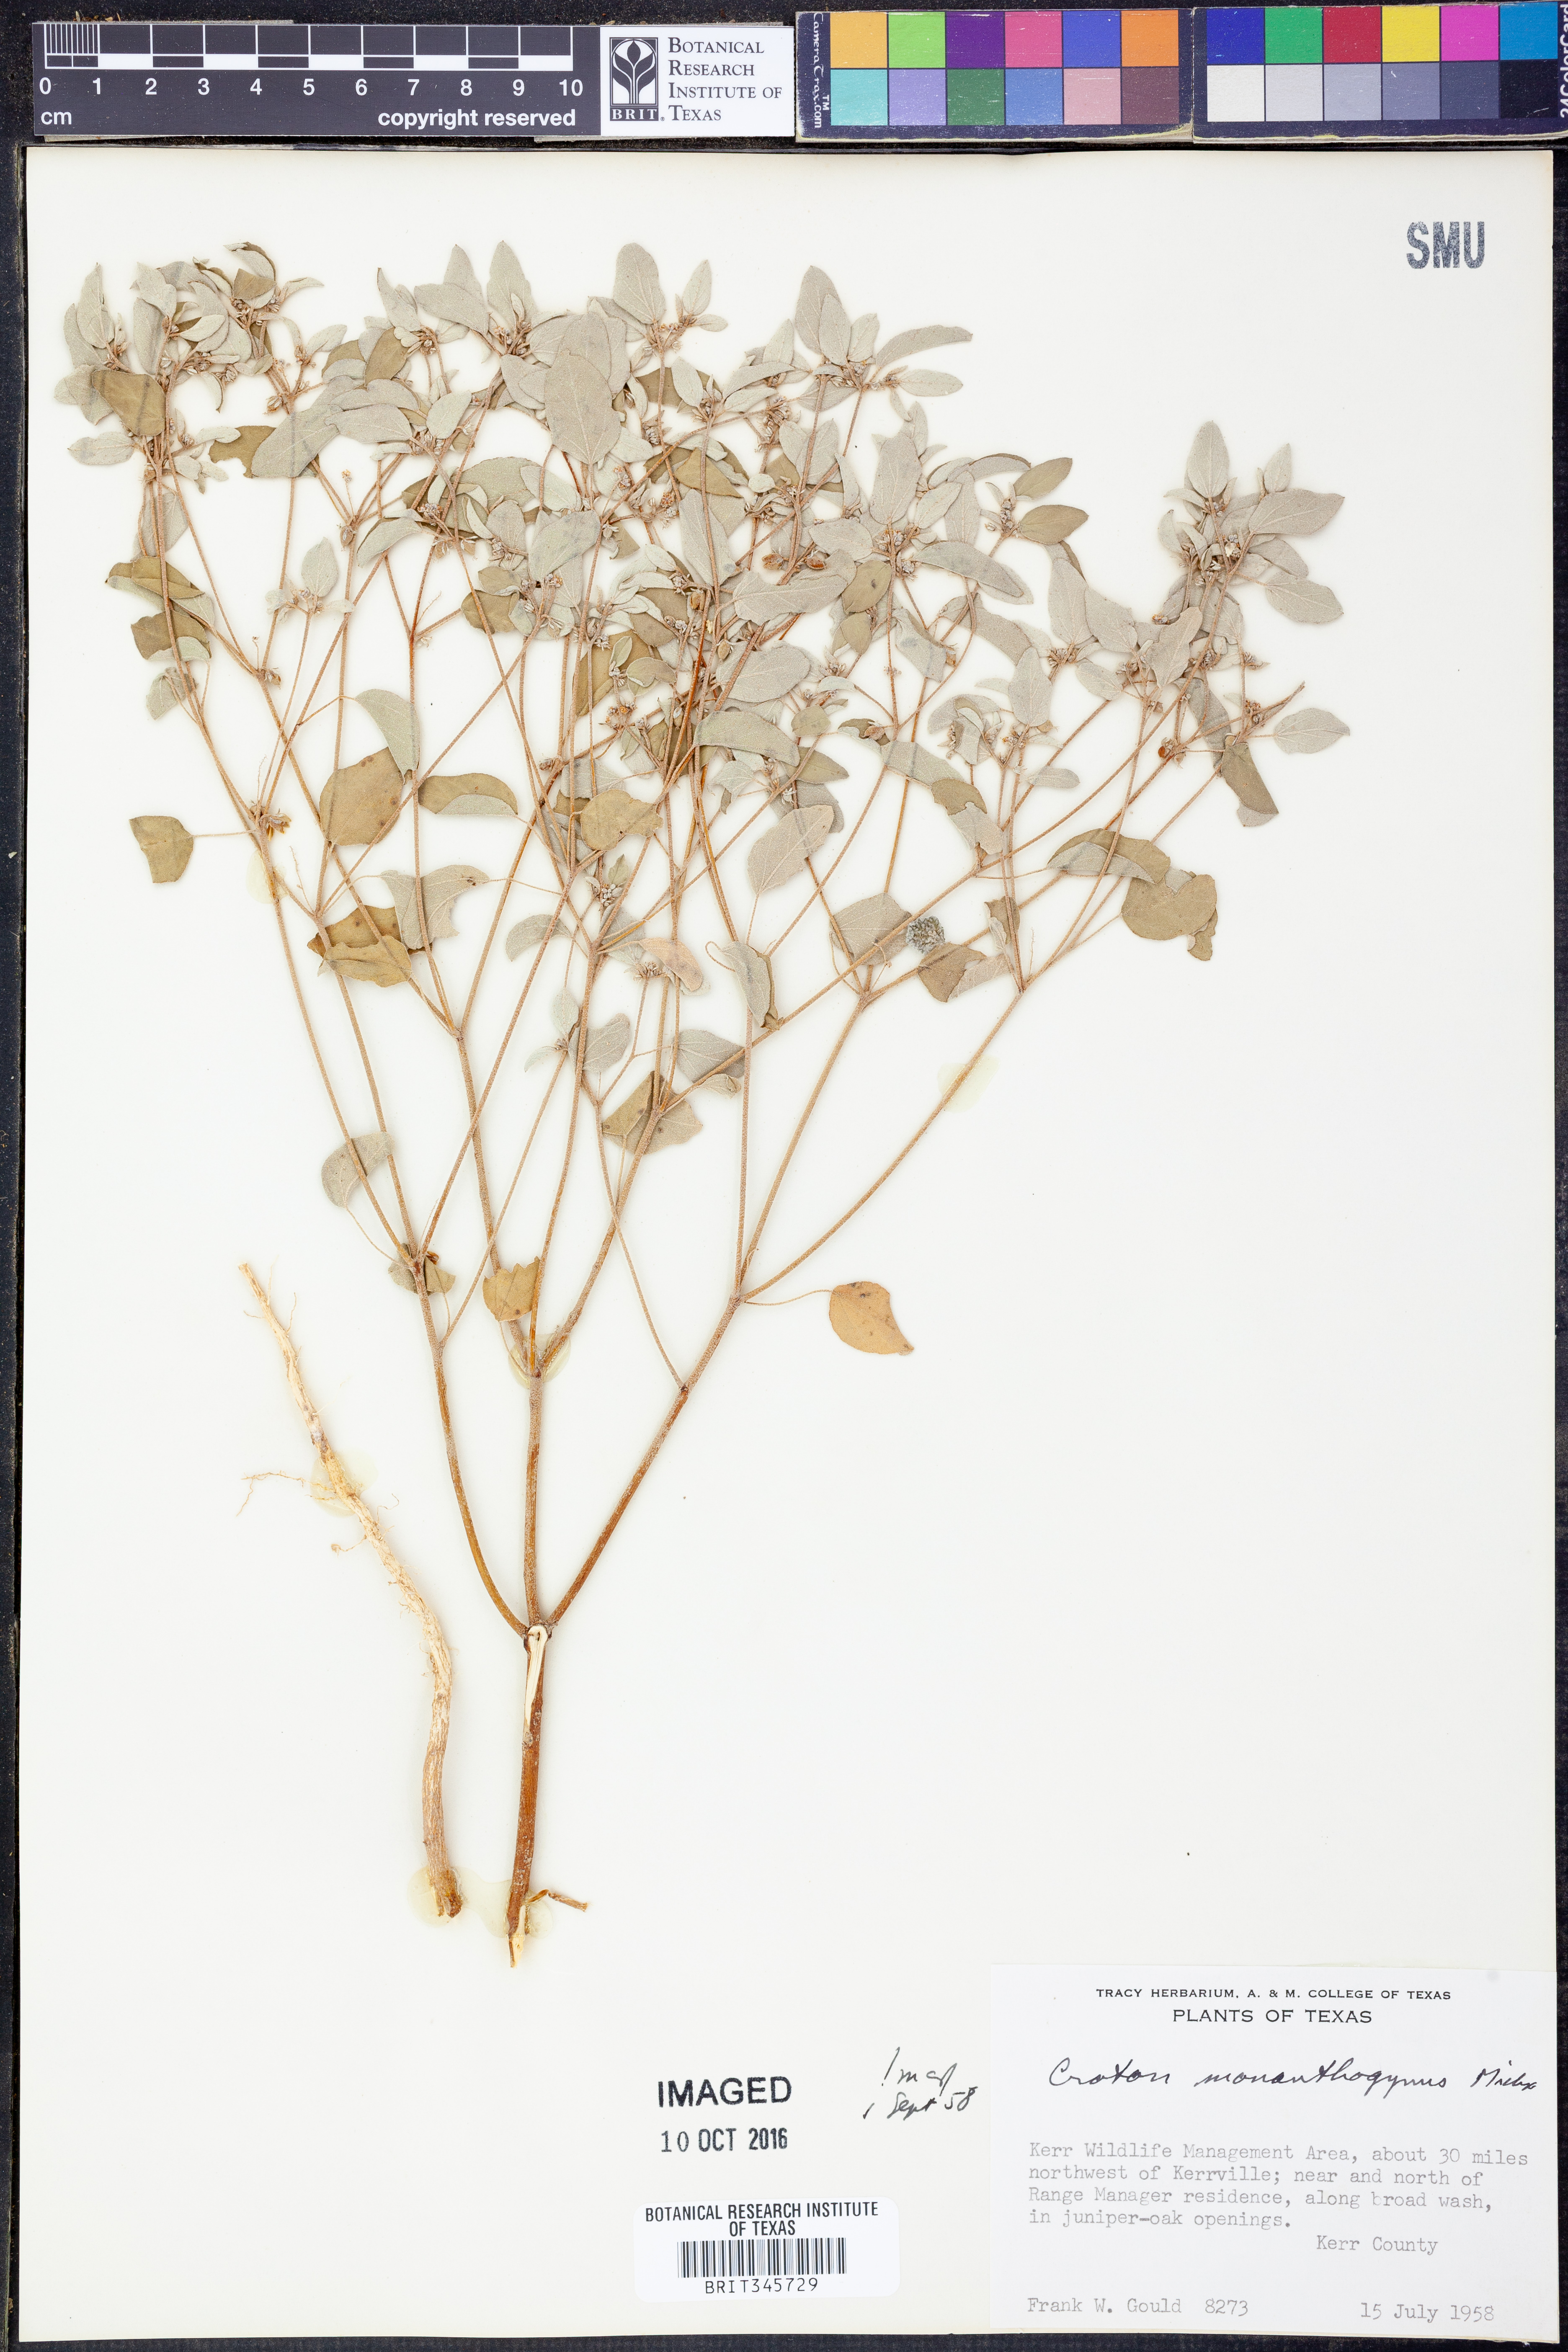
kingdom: Plantae
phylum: Tracheophyta
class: Magnoliopsida
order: Malpighiales
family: Euphorbiaceae
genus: Croton
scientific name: Croton monanthogynus
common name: One-seed croton
